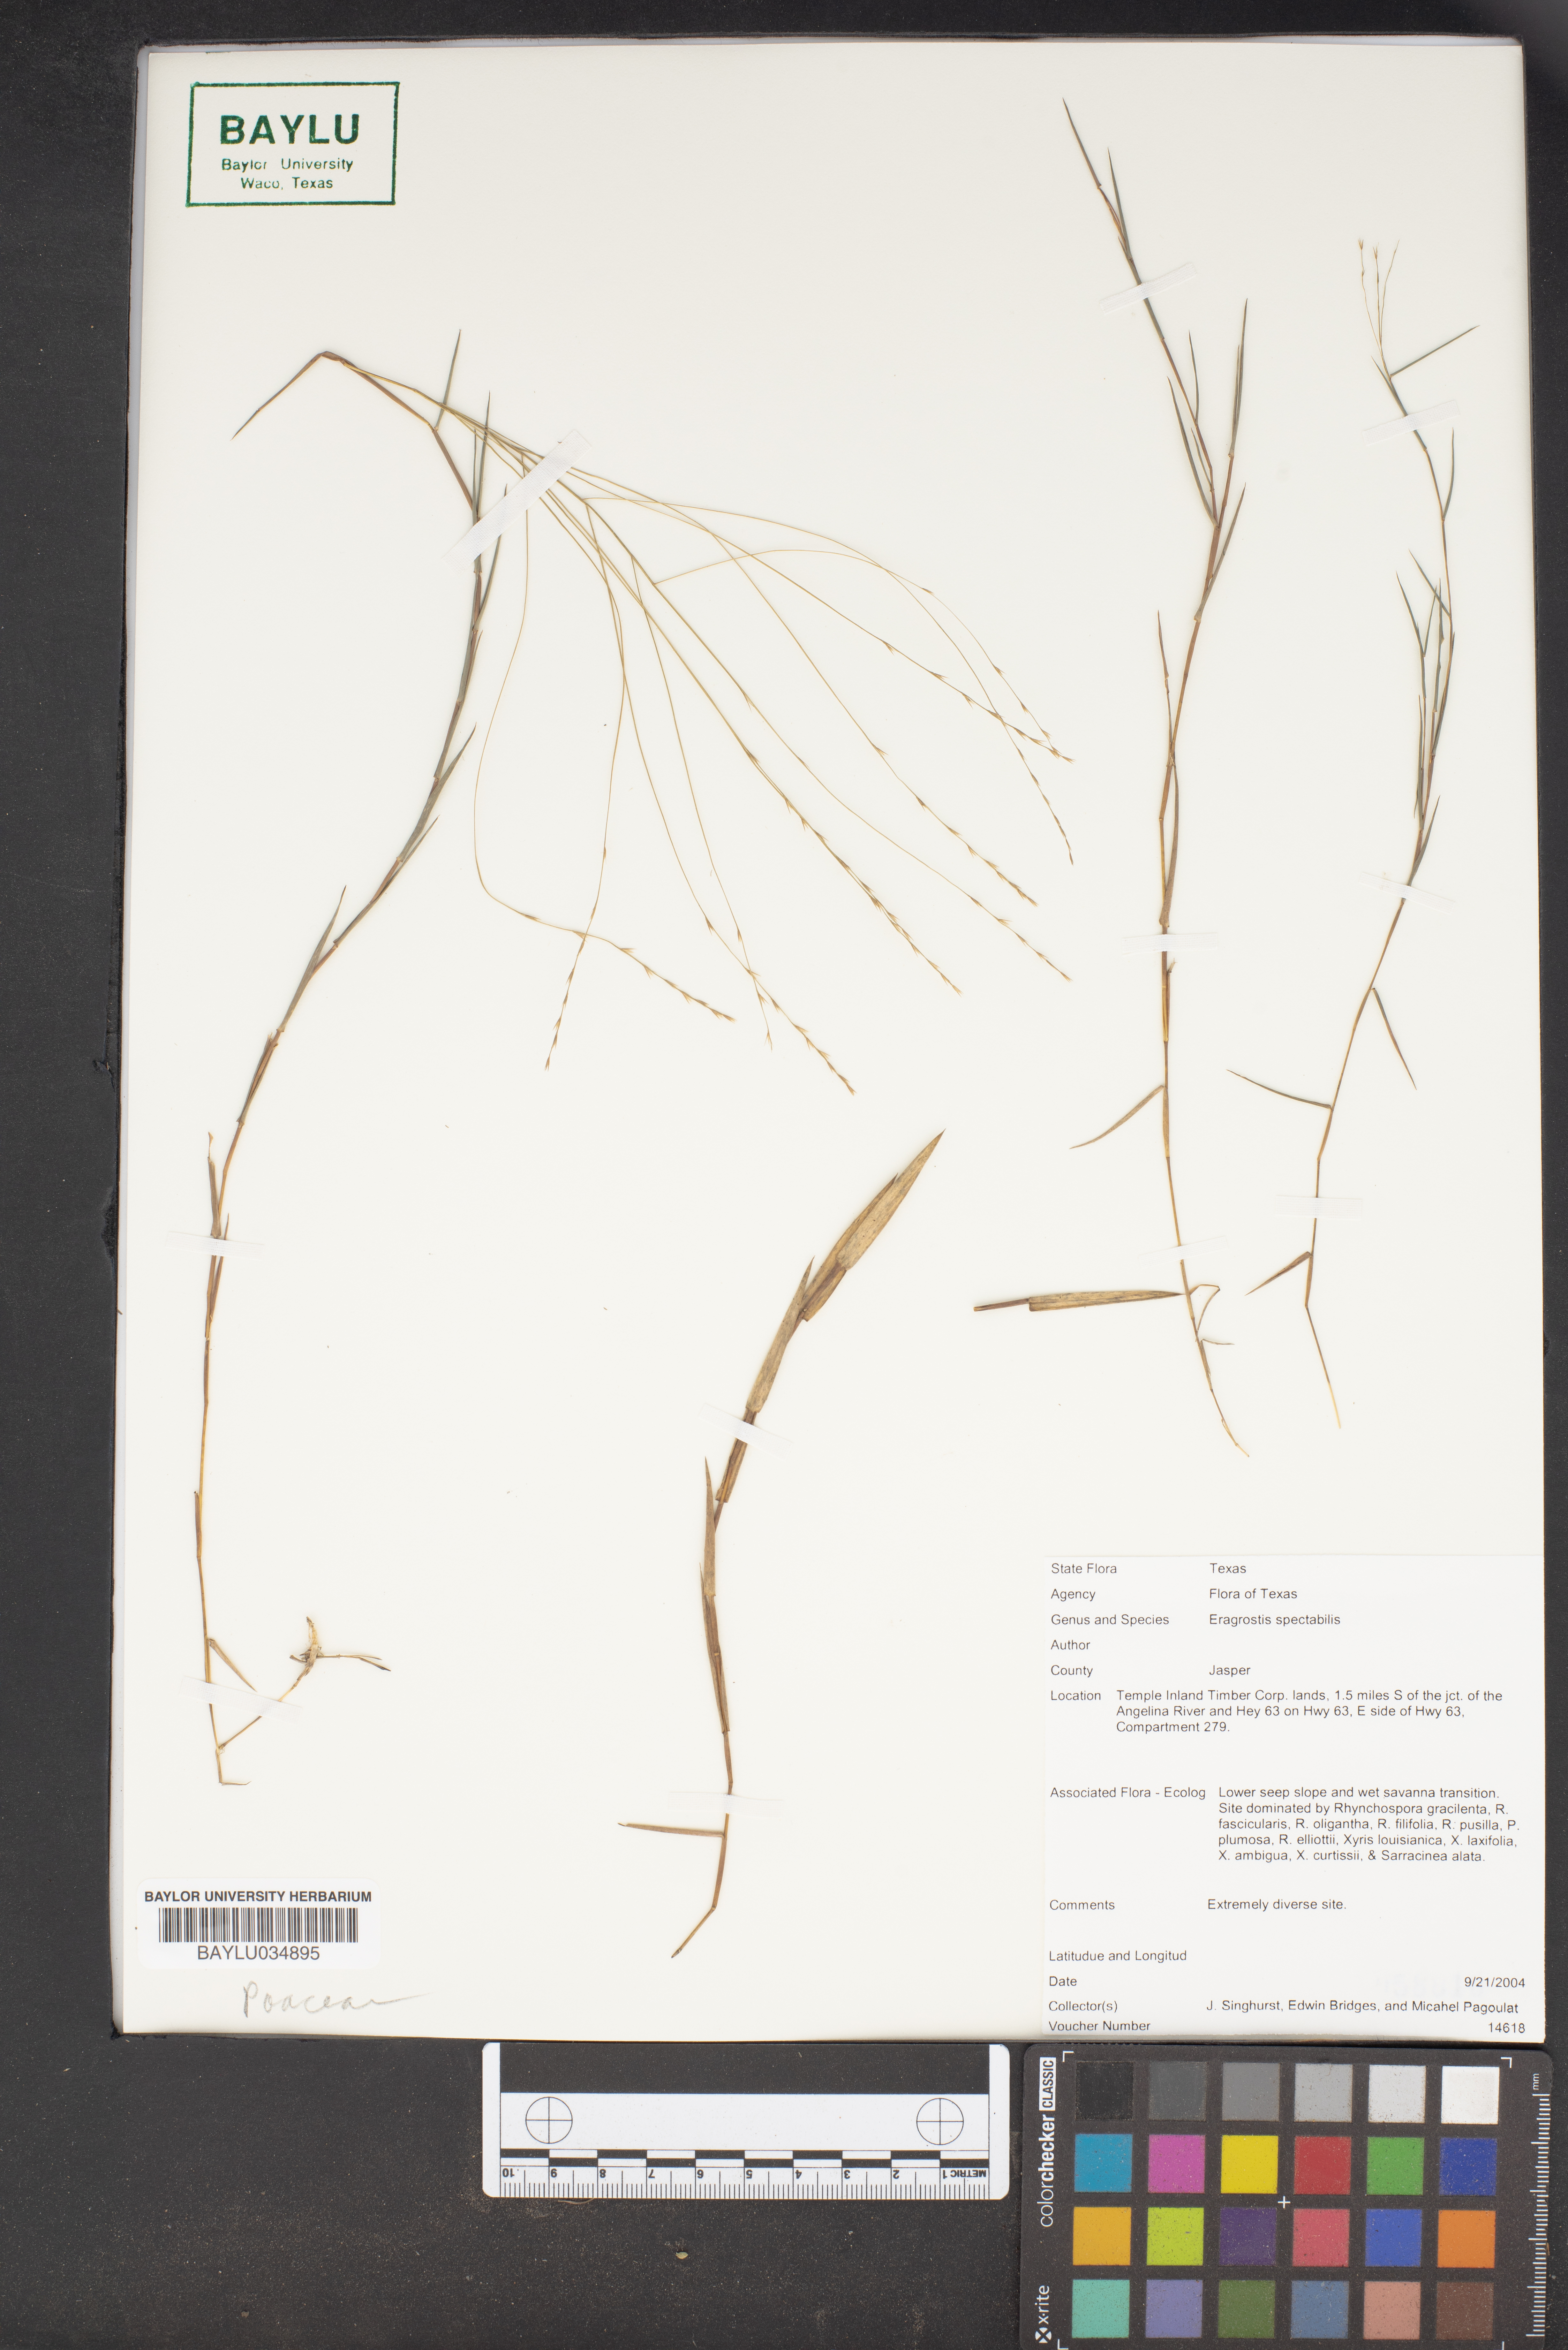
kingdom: Plantae
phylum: Tracheophyta
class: Liliopsida
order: Poales
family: Poaceae
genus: Eragrostis
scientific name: Eragrostis spectabilis
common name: Petticoat-climber
